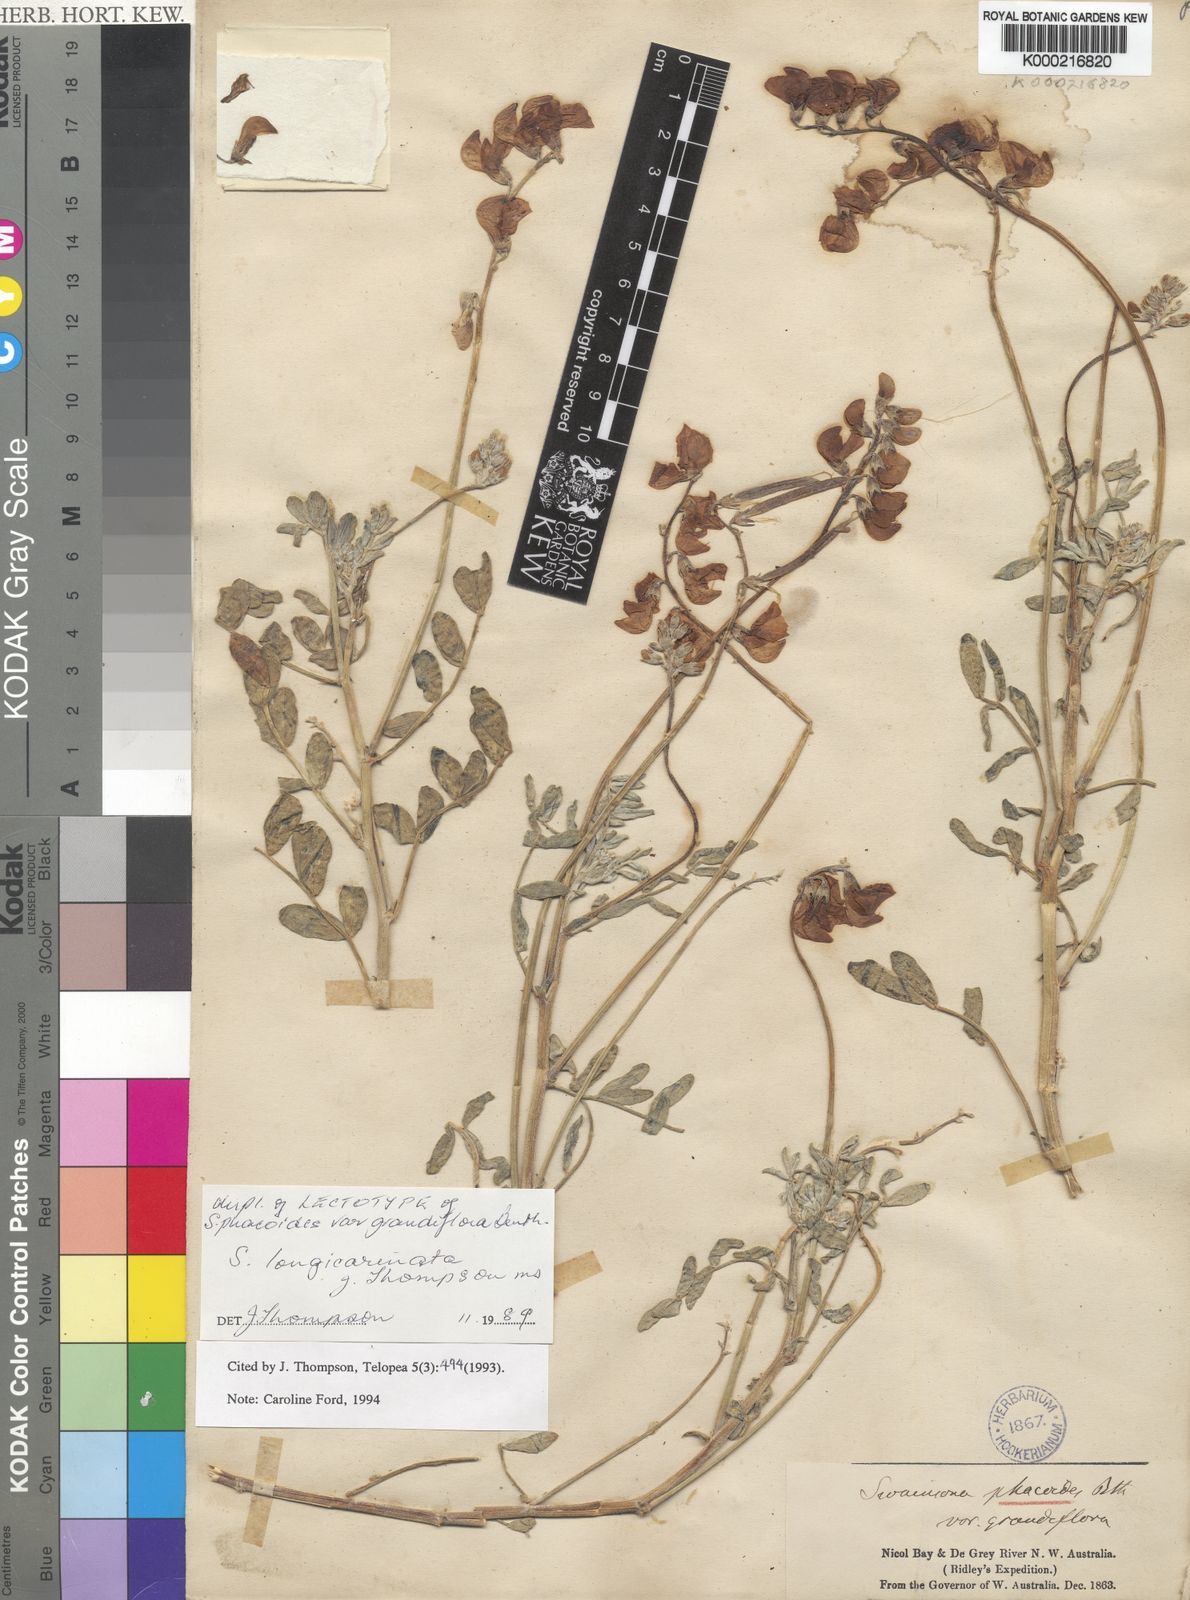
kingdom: Plantae
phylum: Tracheophyta
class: Magnoliopsida
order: Fabales
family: Fabaceae
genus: Swainsona
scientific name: Swainsona longicarinata
